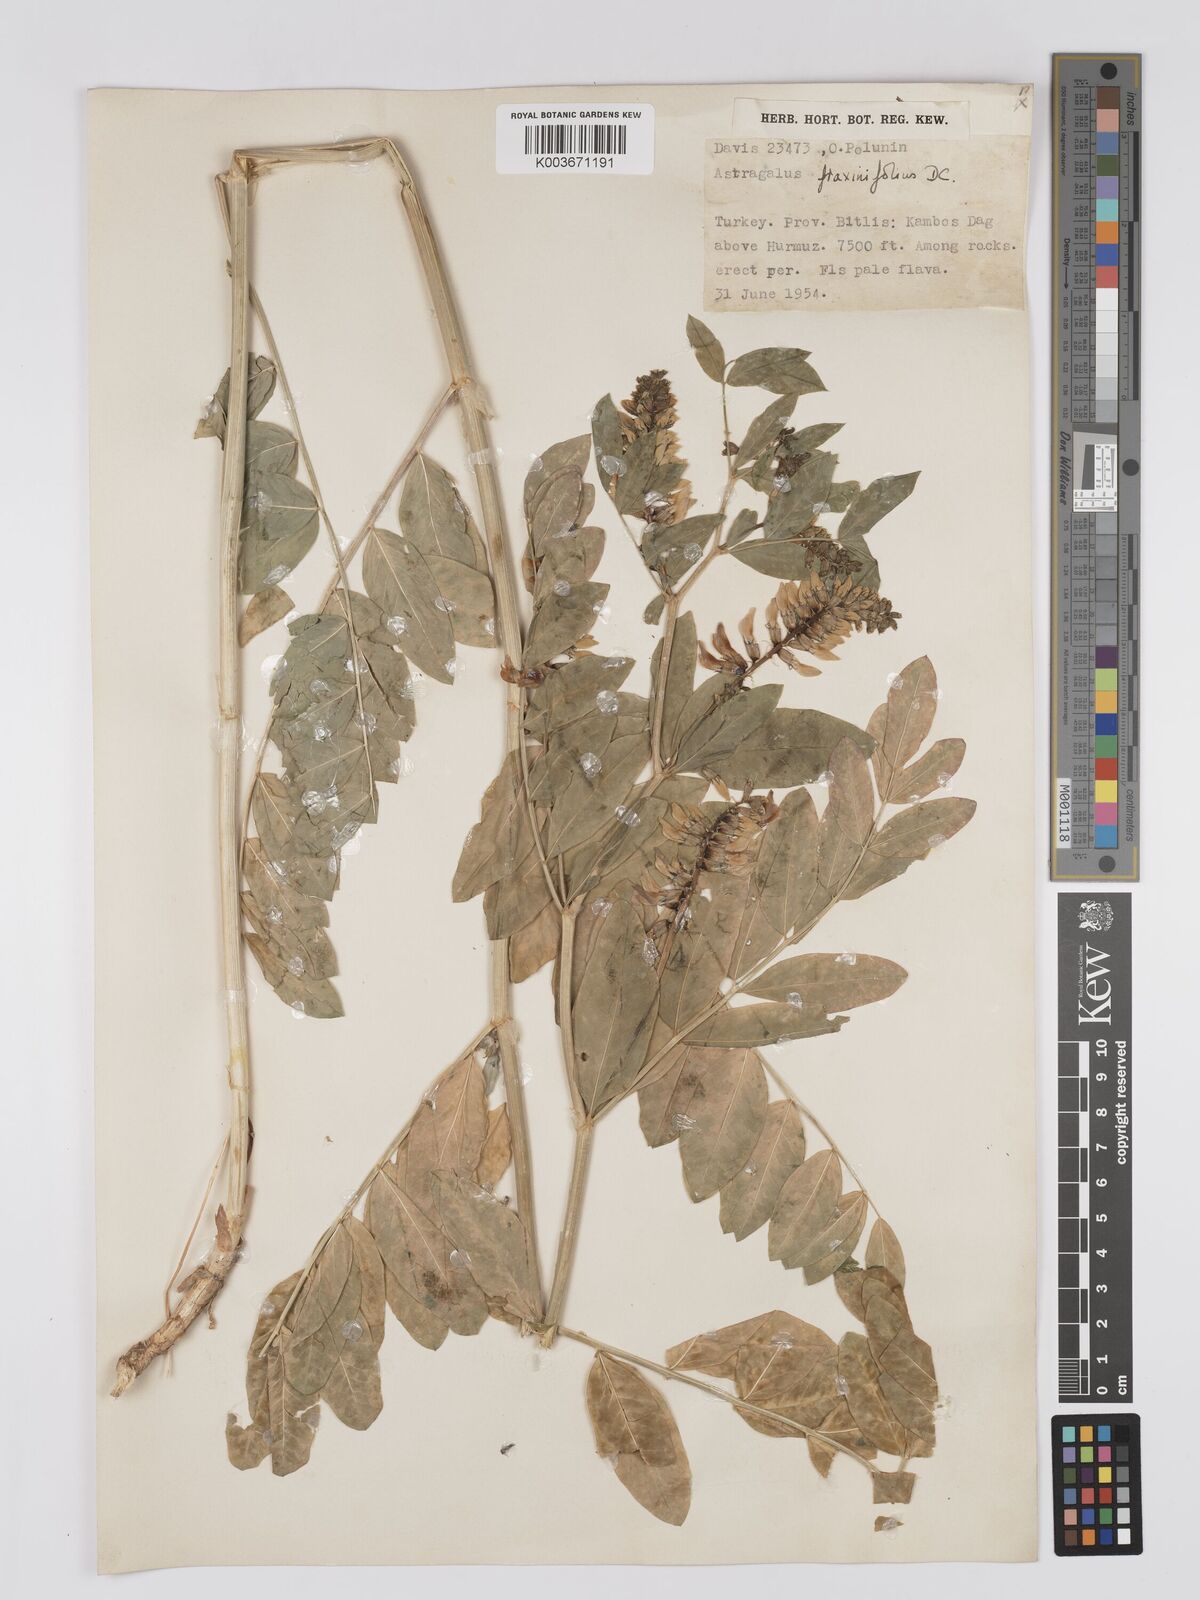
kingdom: Plantae
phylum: Tracheophyta
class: Magnoliopsida
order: Fabales
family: Fabaceae
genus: Astragalus
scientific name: Astragalus fraxinifolius
